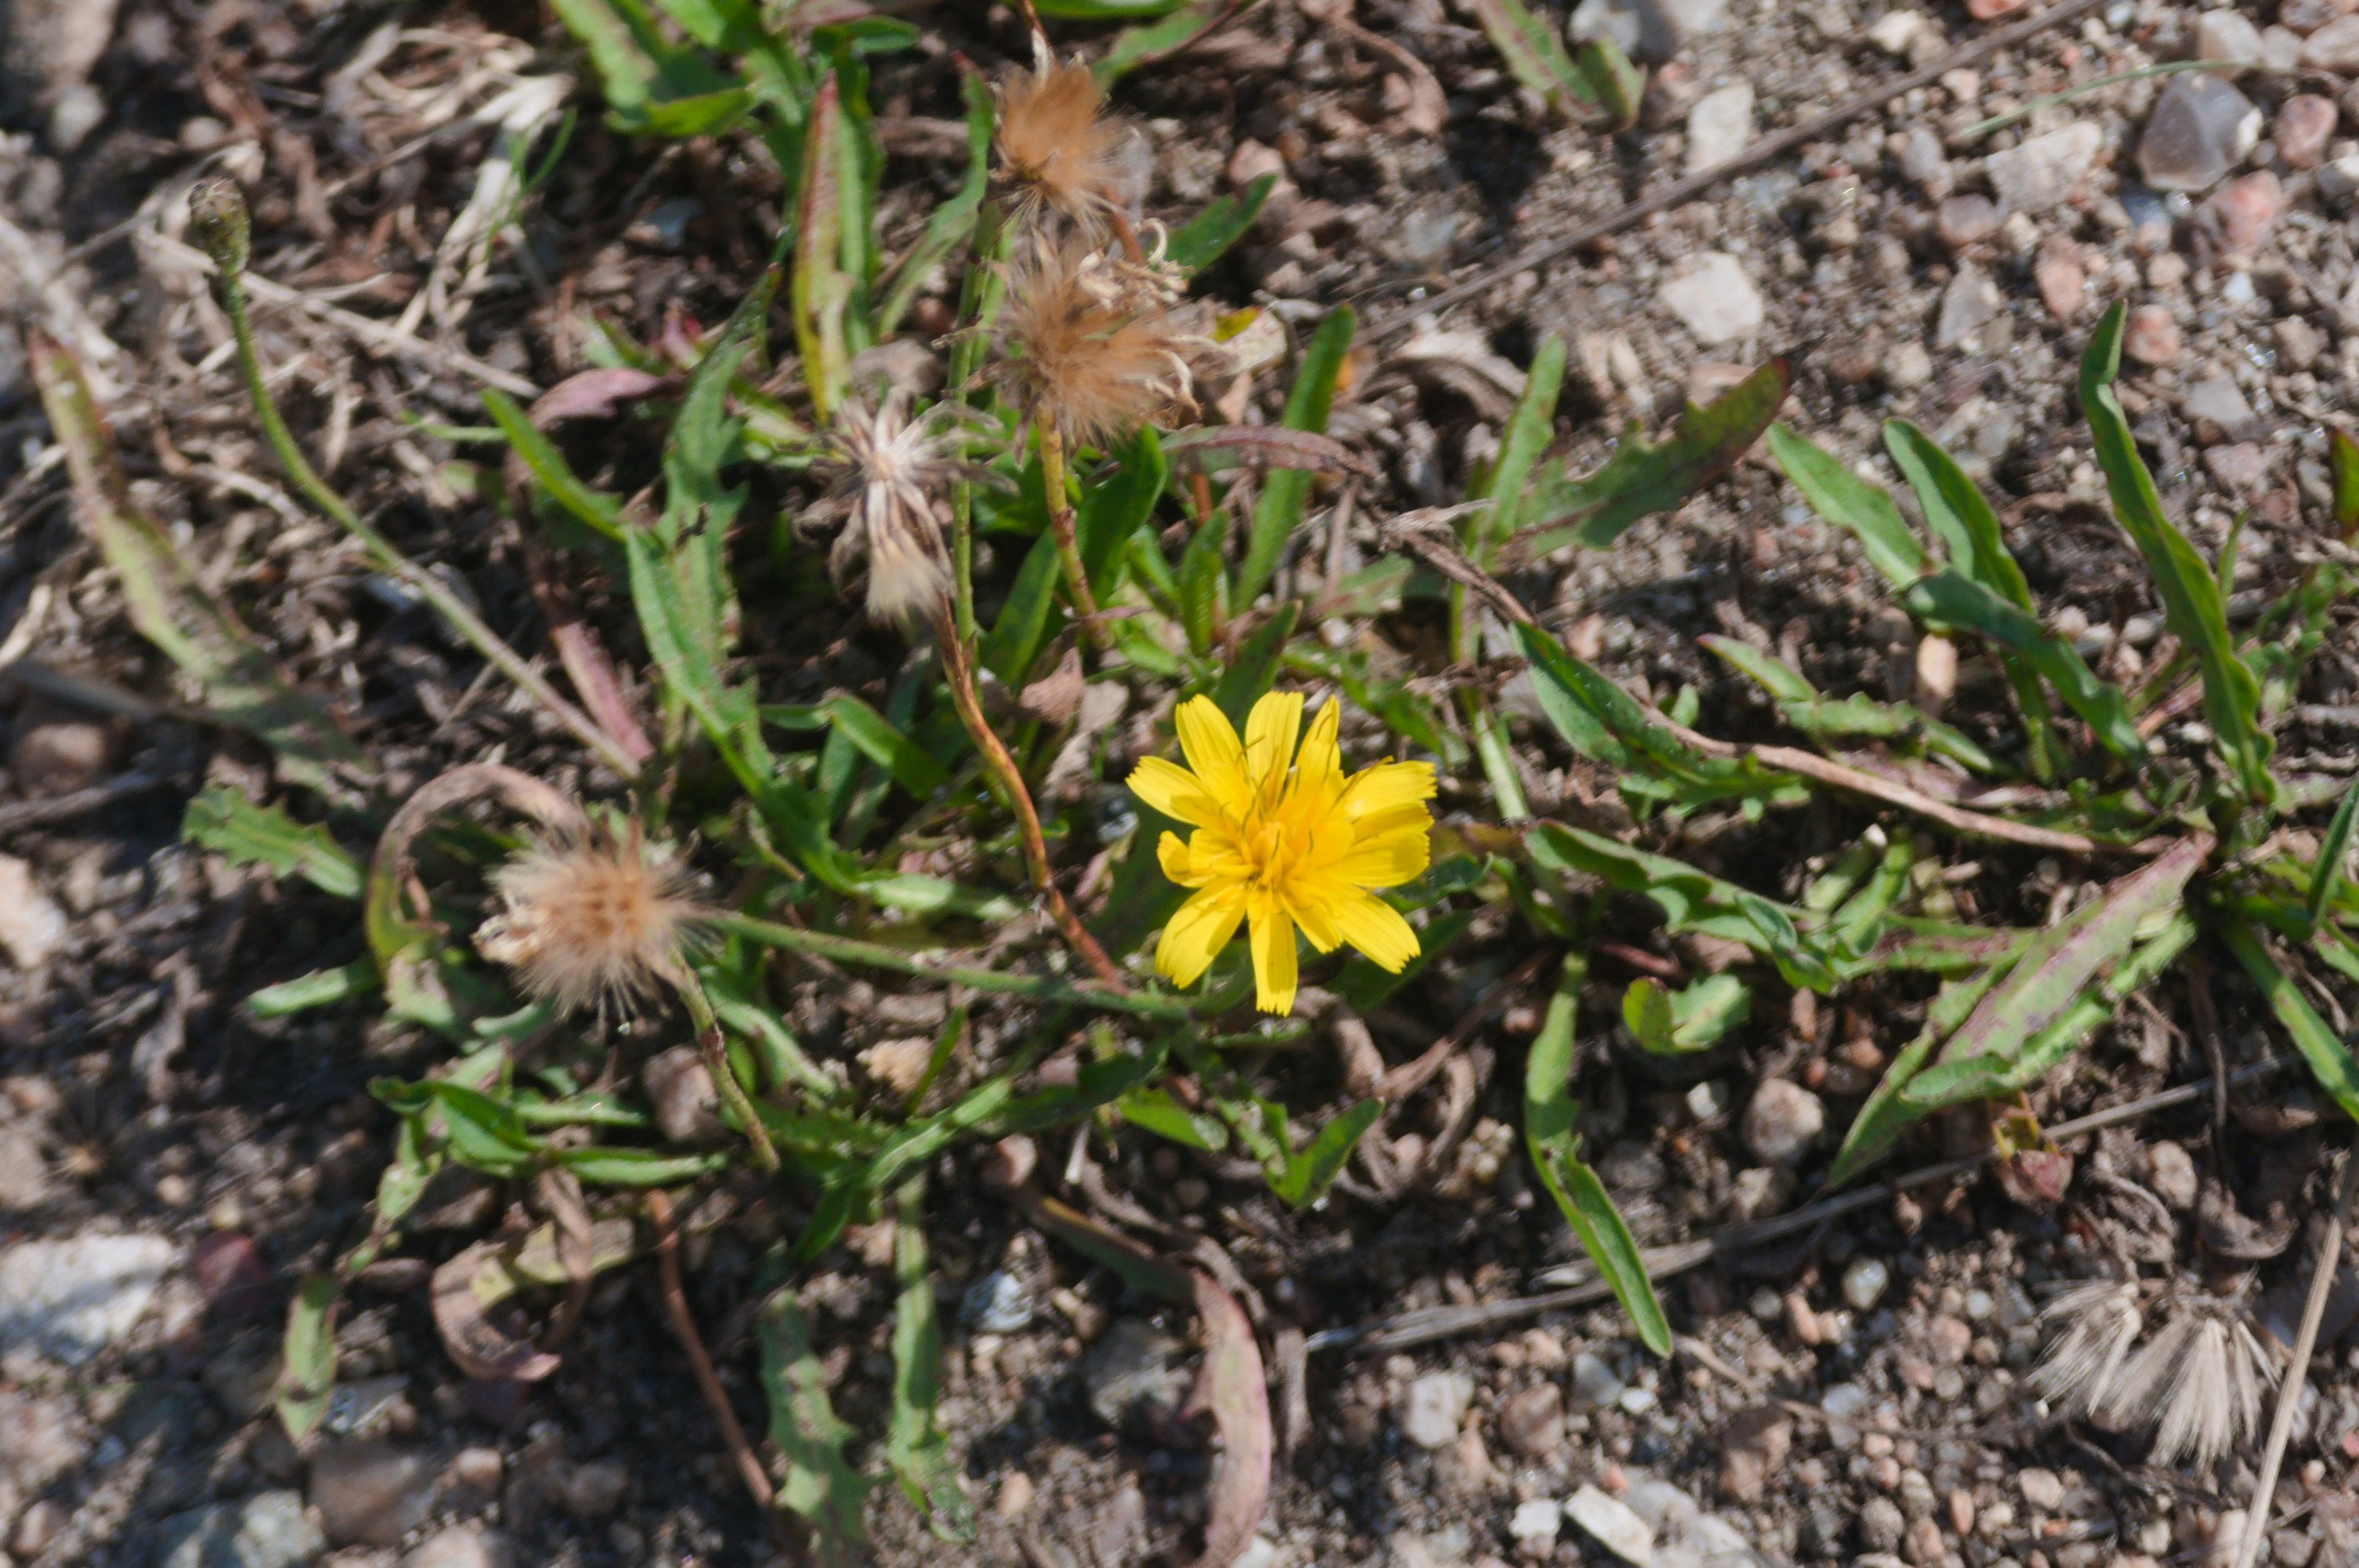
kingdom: Plantae
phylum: Tracheophyta
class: Magnoliopsida
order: Asterales
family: Asteraceae
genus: Scorzoneroides
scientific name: Scorzoneroides autumnalis
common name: Høst-borst
